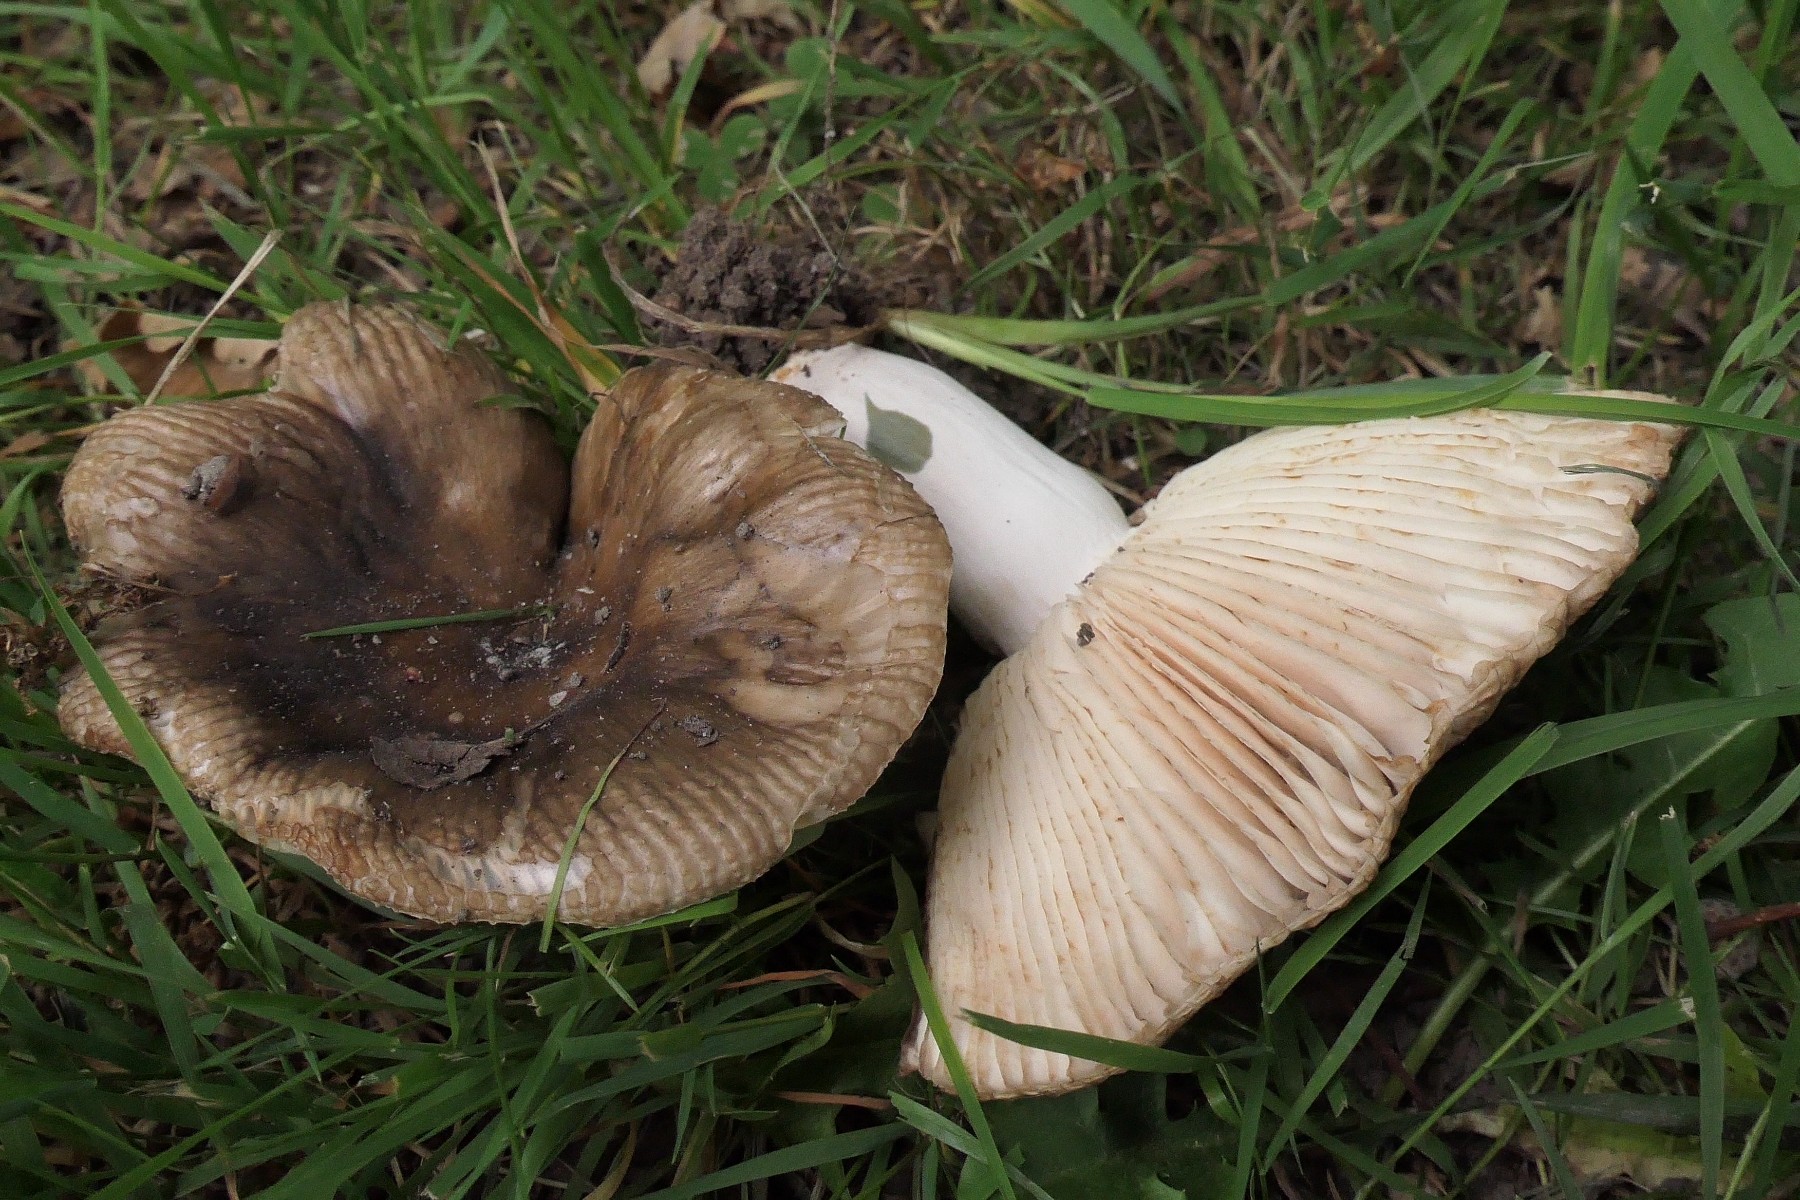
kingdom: Fungi
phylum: Basidiomycota
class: Agaricomycetes
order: Russulales
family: Russulaceae
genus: Russula
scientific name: Russula sororia
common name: brun kam-skørhat
